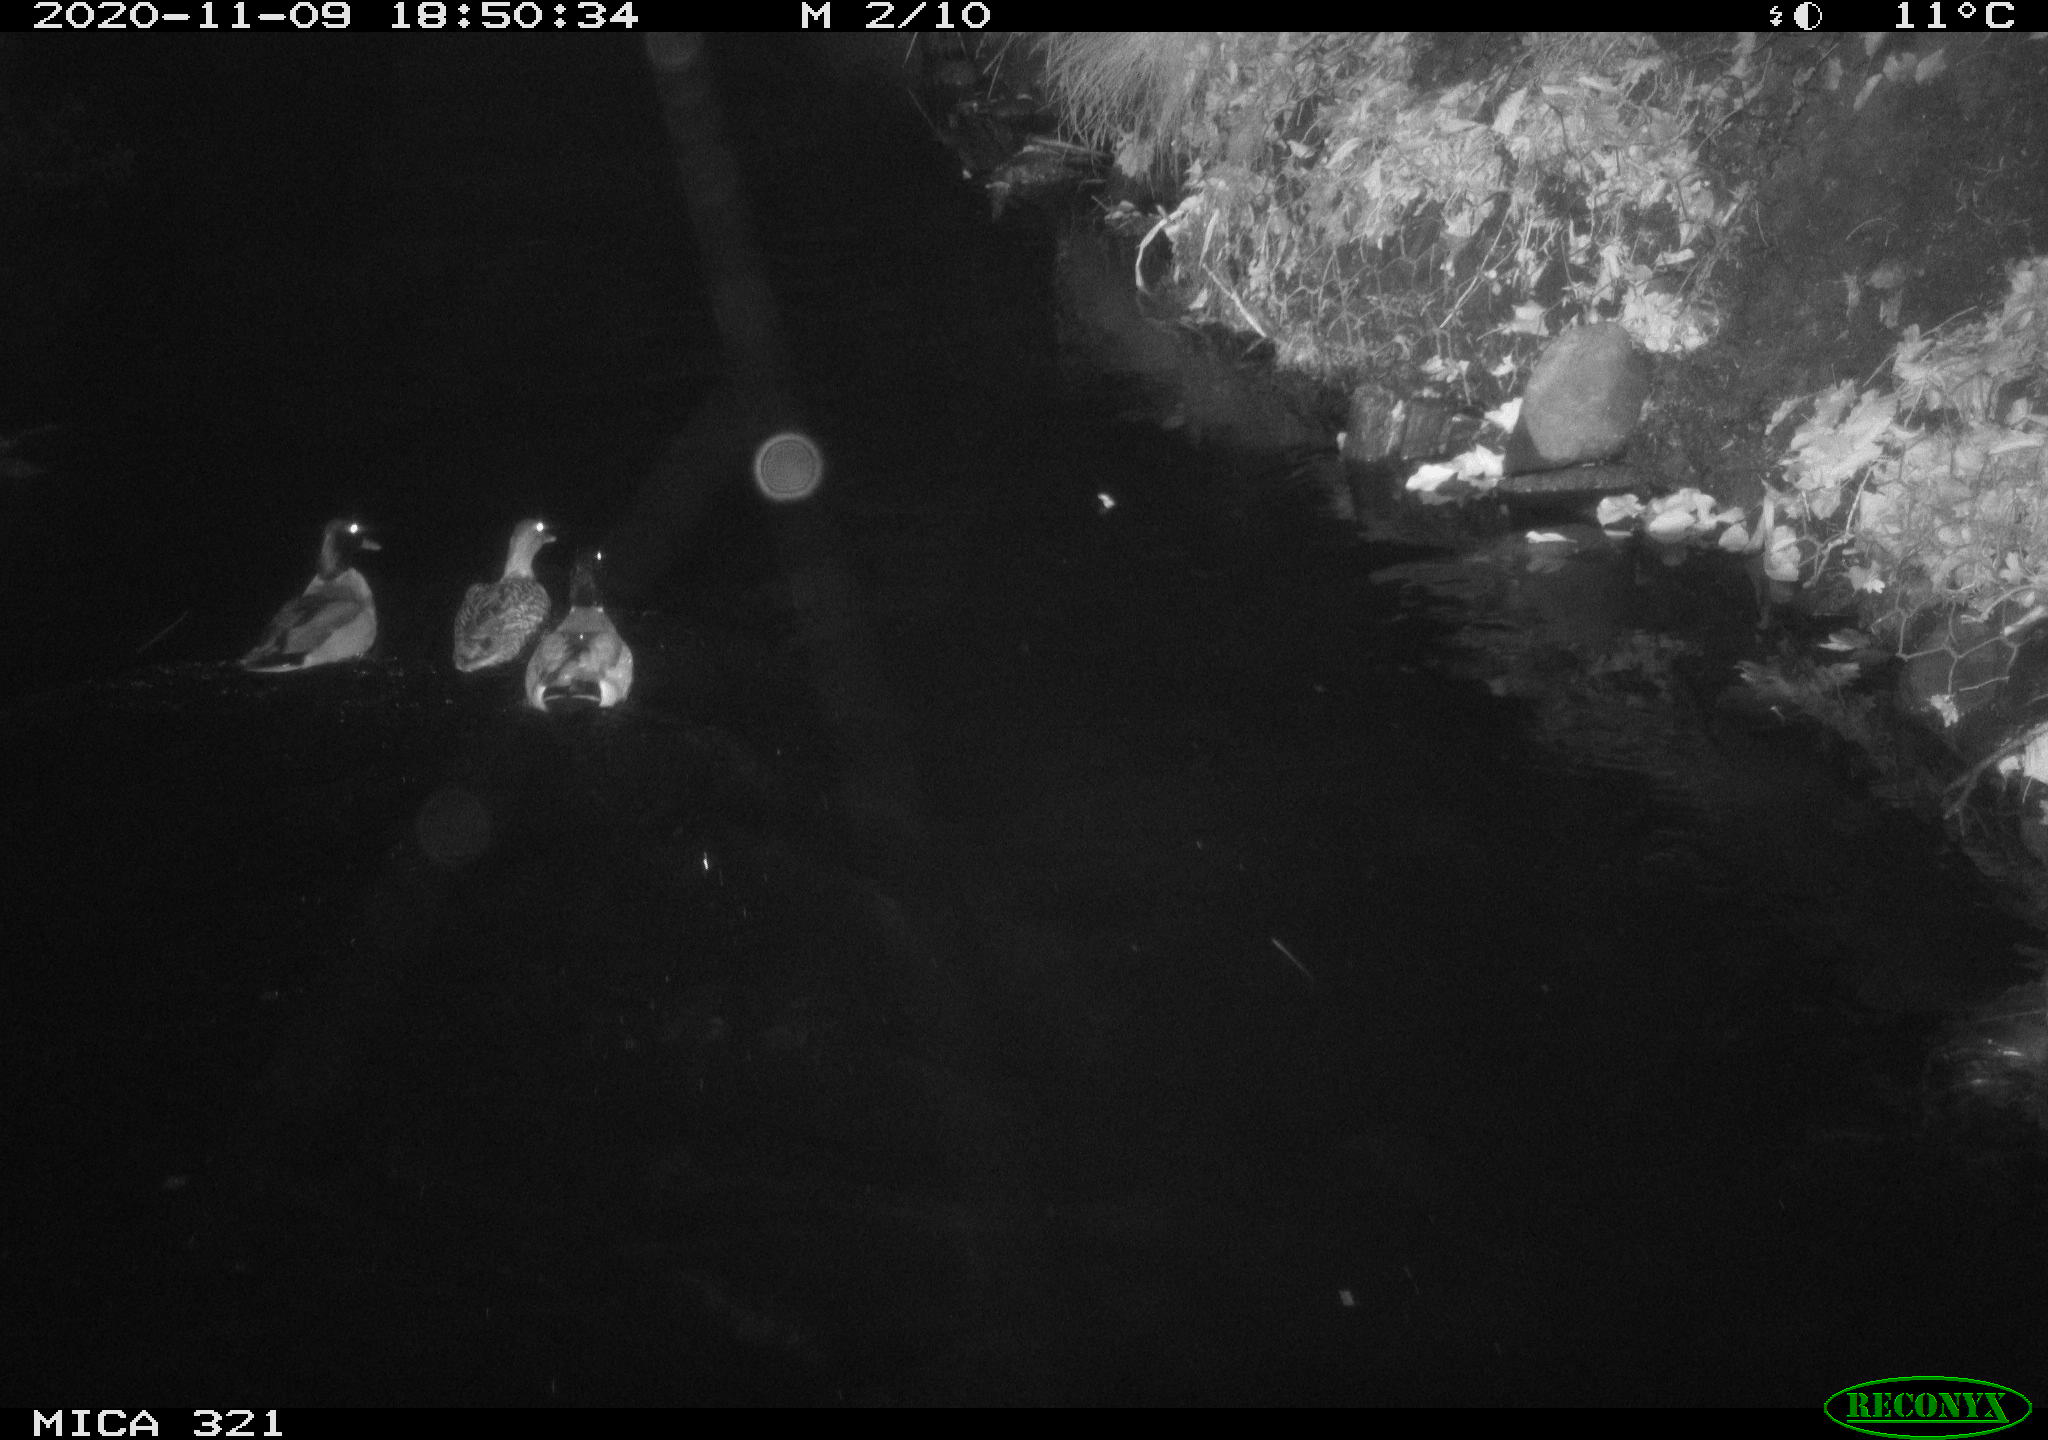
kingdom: Animalia
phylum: Chordata
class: Aves
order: Anseriformes
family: Anatidae
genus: Anas
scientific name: Anas platyrhynchos
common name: Mallard
